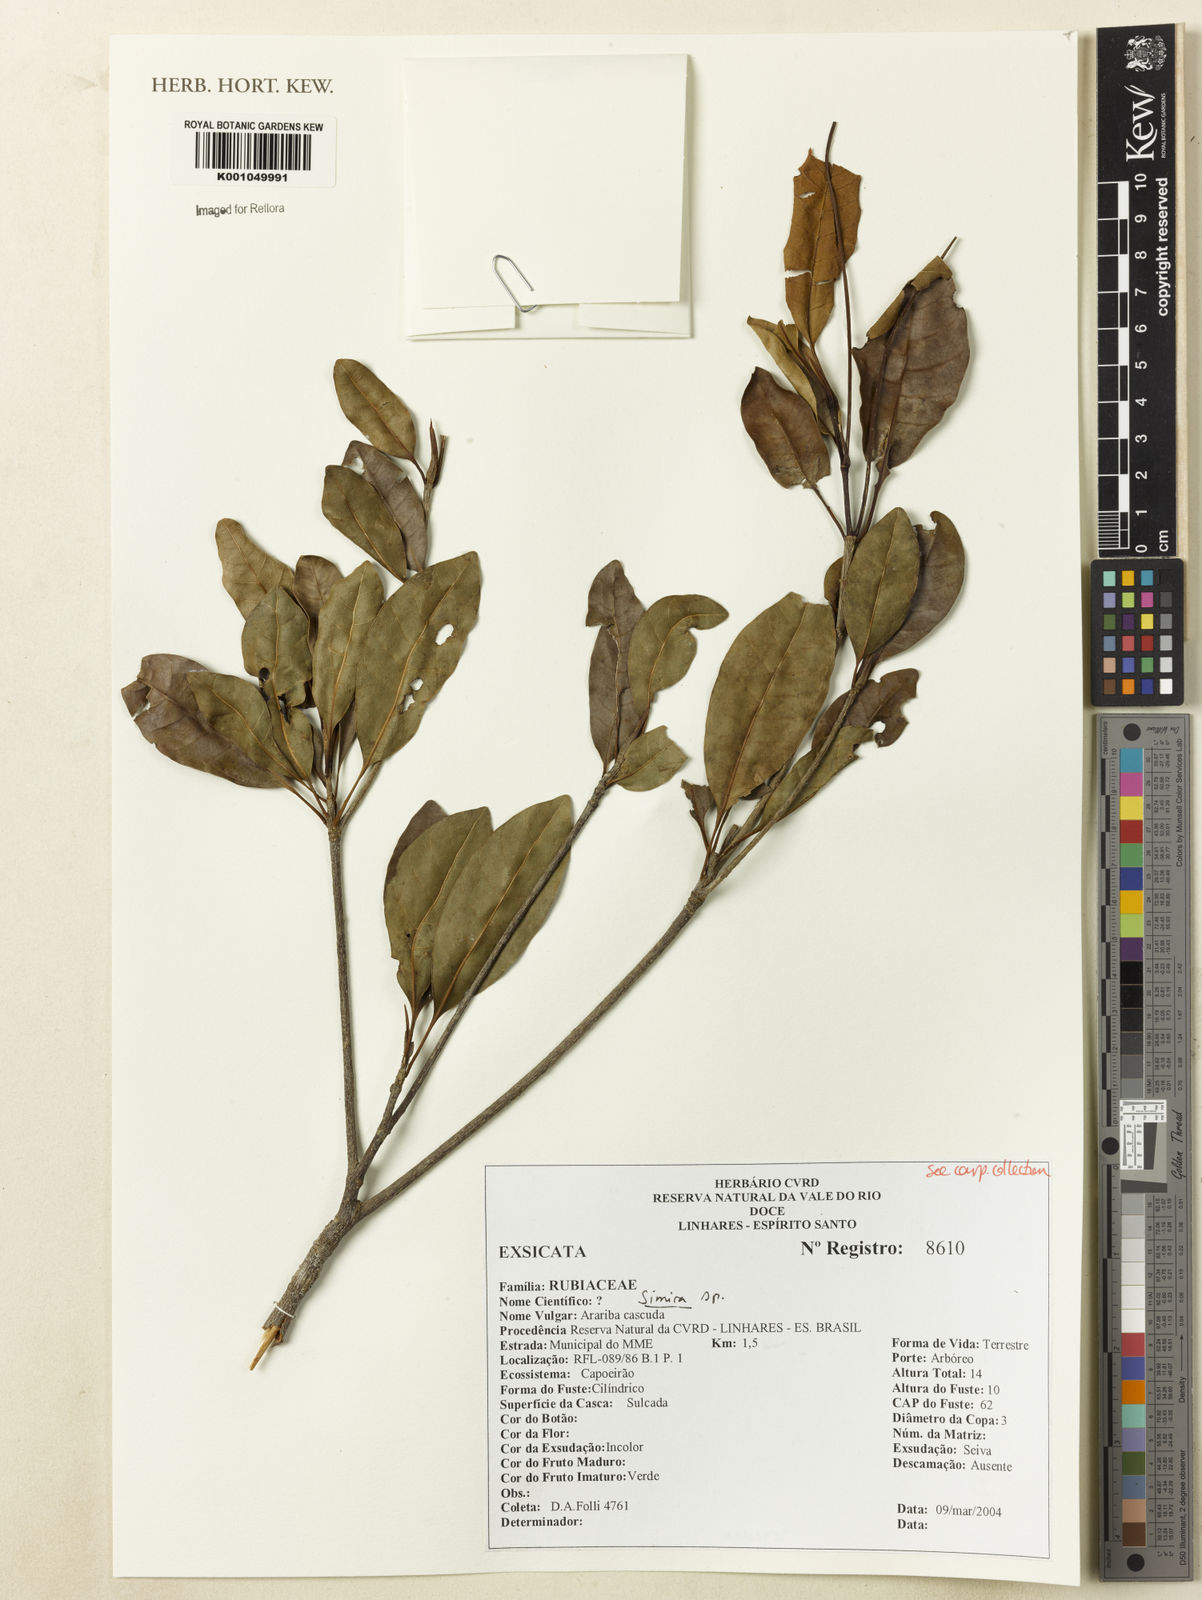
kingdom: Plantae
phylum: Tracheophyta
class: Magnoliopsida
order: Gentianales
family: Rubiaceae
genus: Simira
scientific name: Simira
